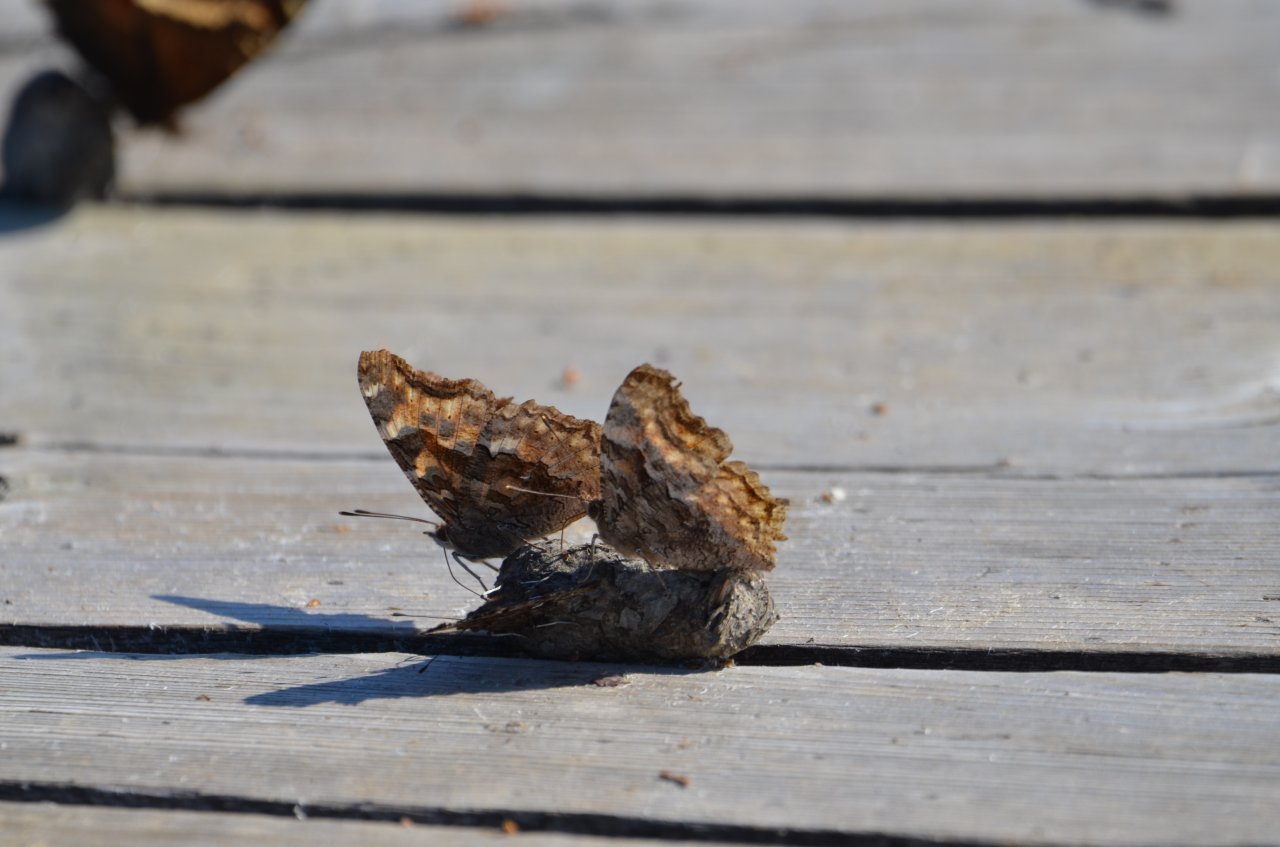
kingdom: Animalia
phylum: Arthropoda
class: Insecta
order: Lepidoptera
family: Nymphalidae
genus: Polygonia
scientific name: Polygonia vaualbum
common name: Compton Tortoiseshell
